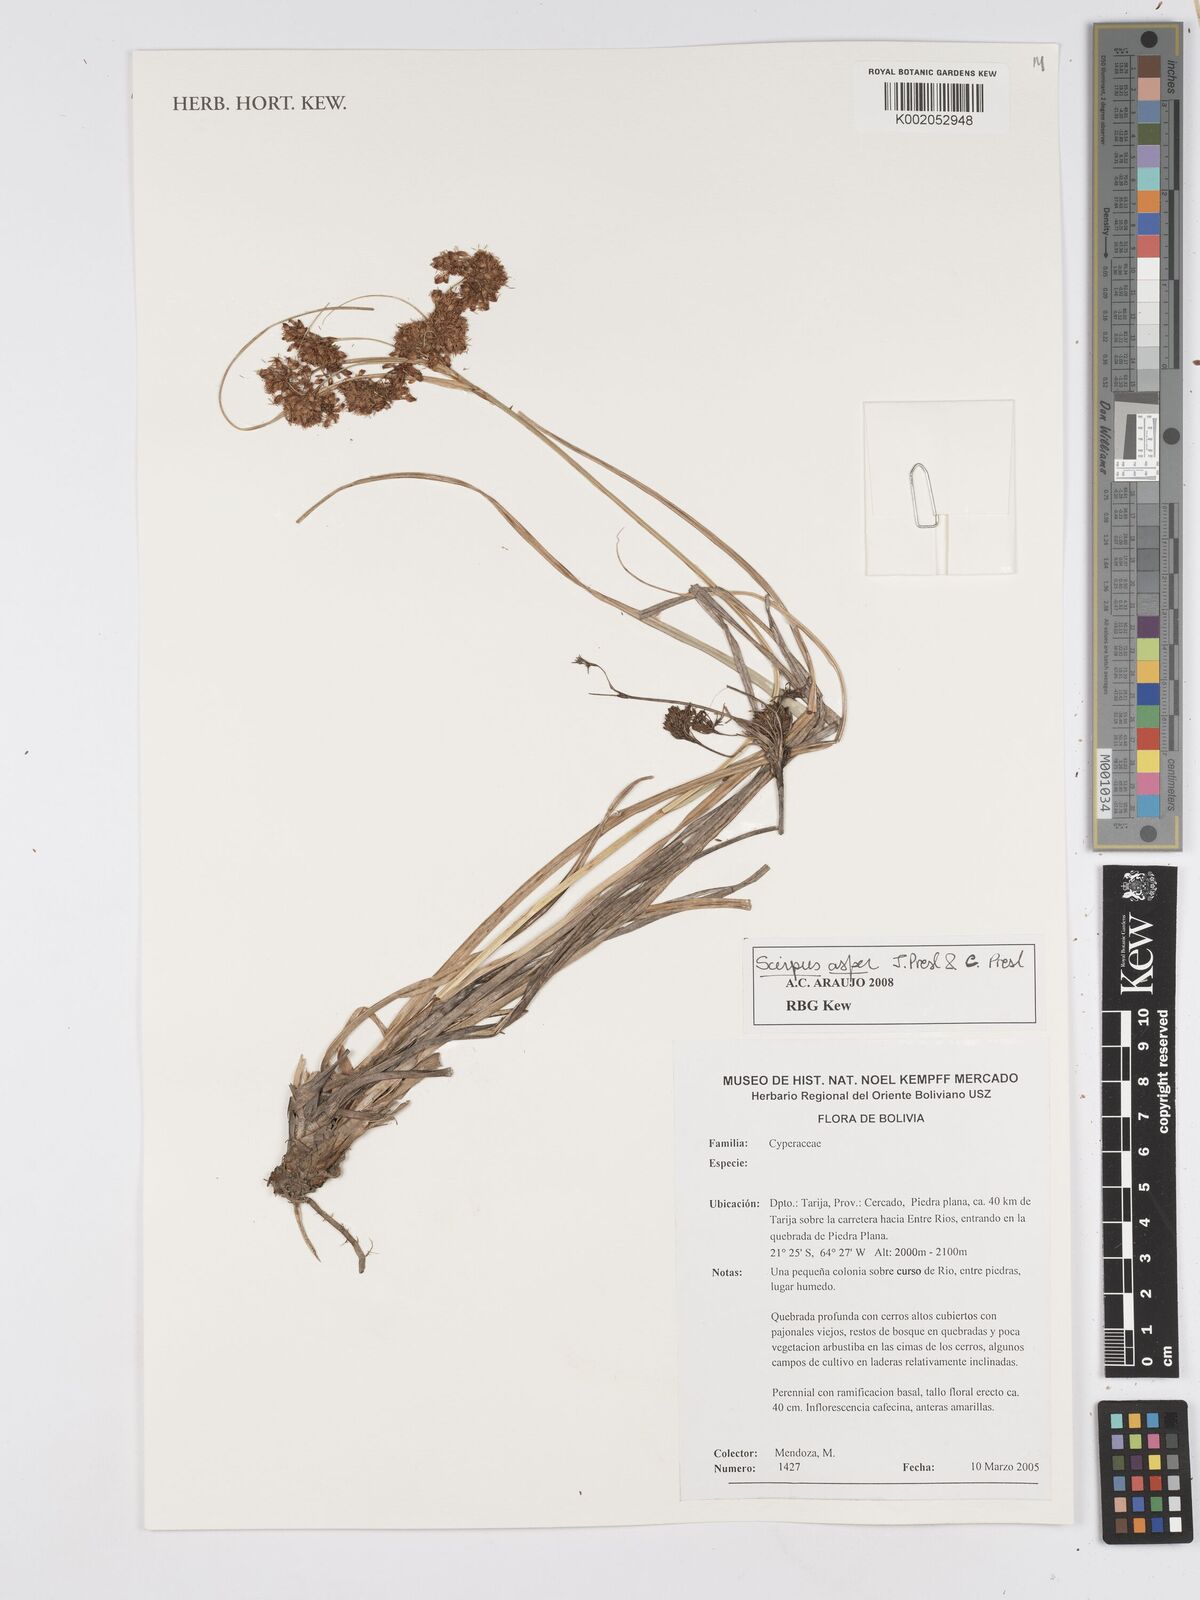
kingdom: Plantae
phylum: Tracheophyta
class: Liliopsida
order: Poales
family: Cyperaceae
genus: Rhodoscirpus
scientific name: Rhodoscirpus asper
